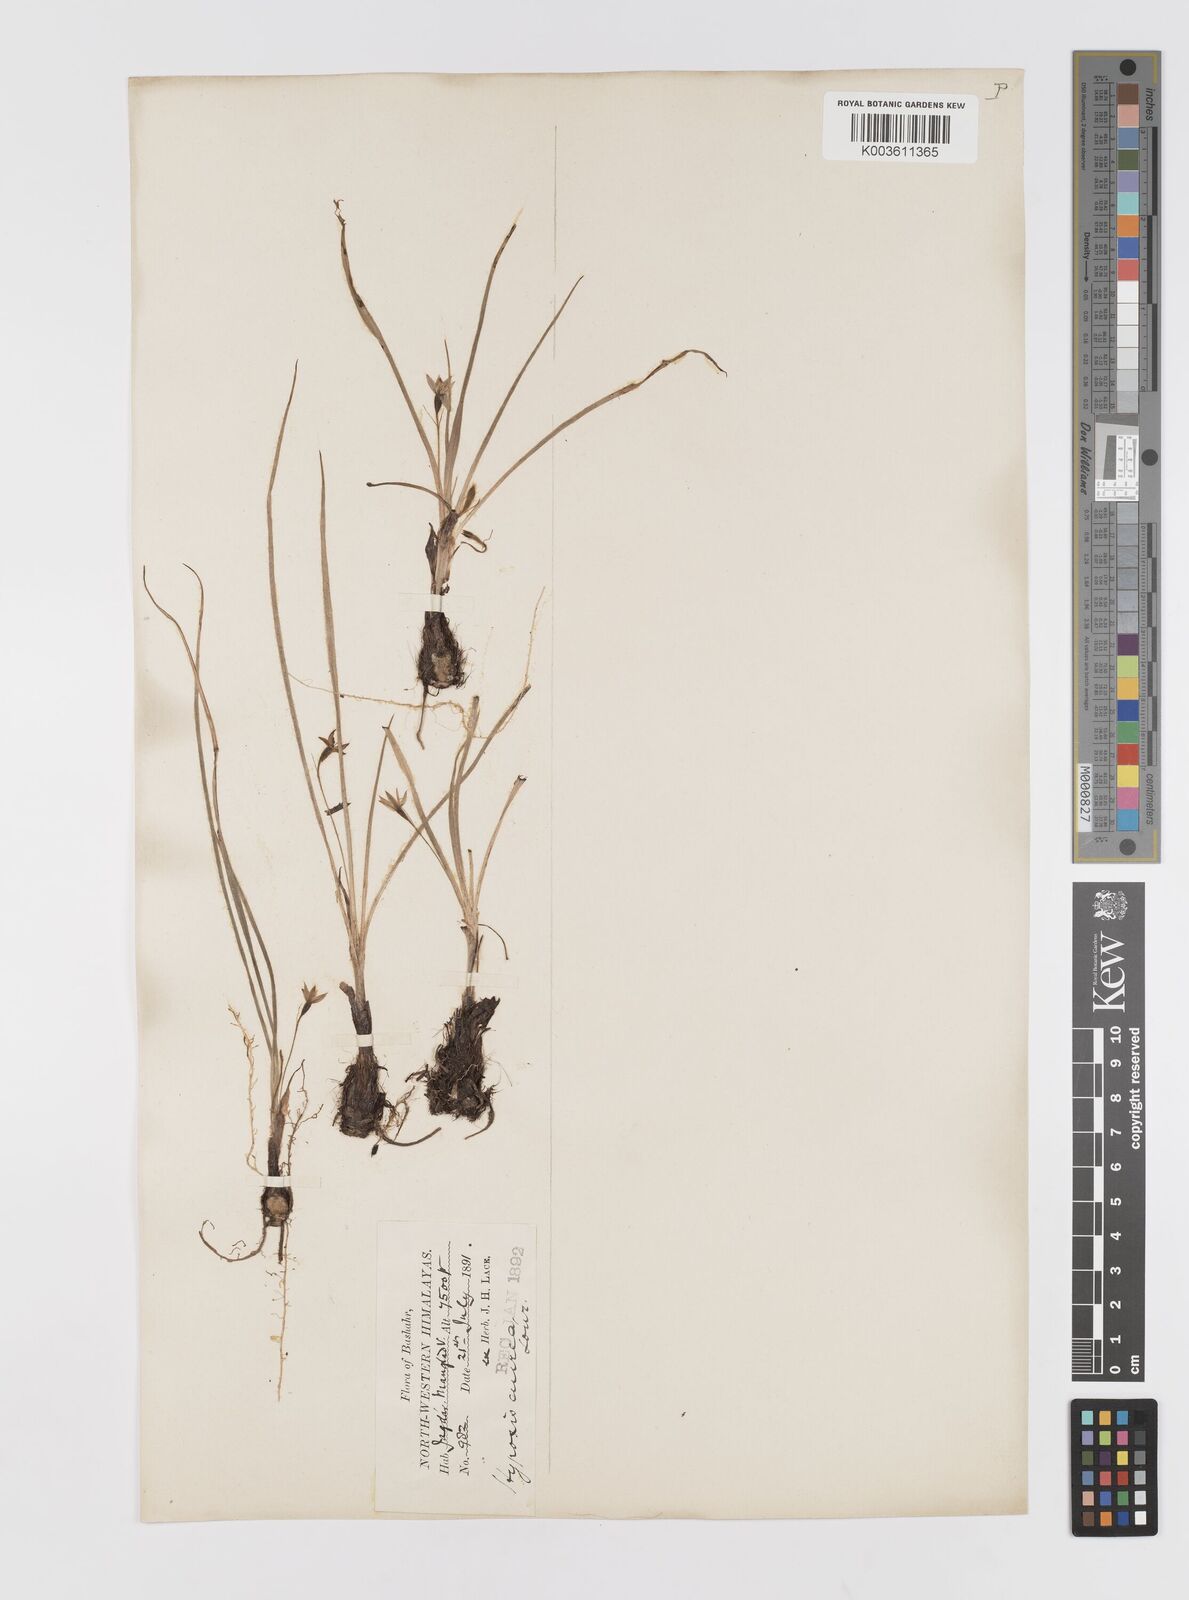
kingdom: Plantae
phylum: Tracheophyta
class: Liliopsida
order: Asparagales
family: Hypoxidaceae
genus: Hypoxis
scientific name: Hypoxis aurea
